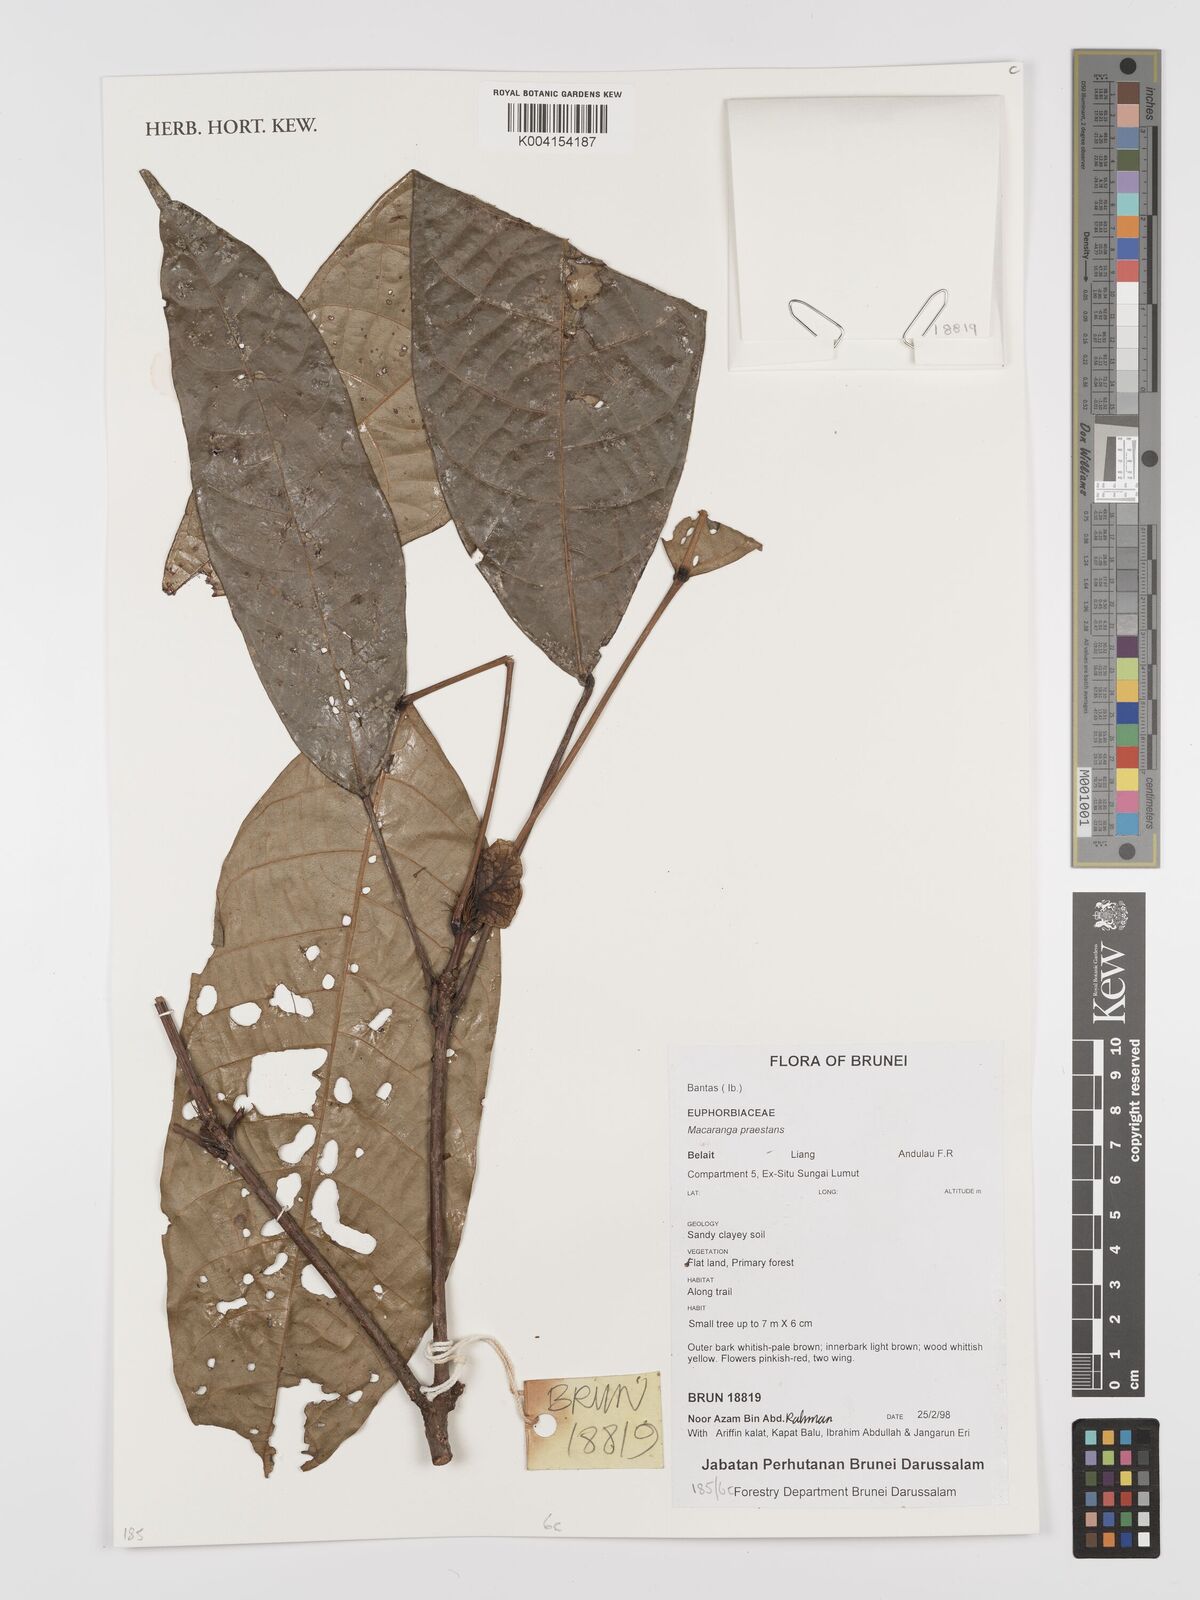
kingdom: Plantae
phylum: Tracheophyta
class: Magnoliopsida
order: Malpighiales
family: Euphorbiaceae
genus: Macaranga
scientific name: Macaranga praestans
